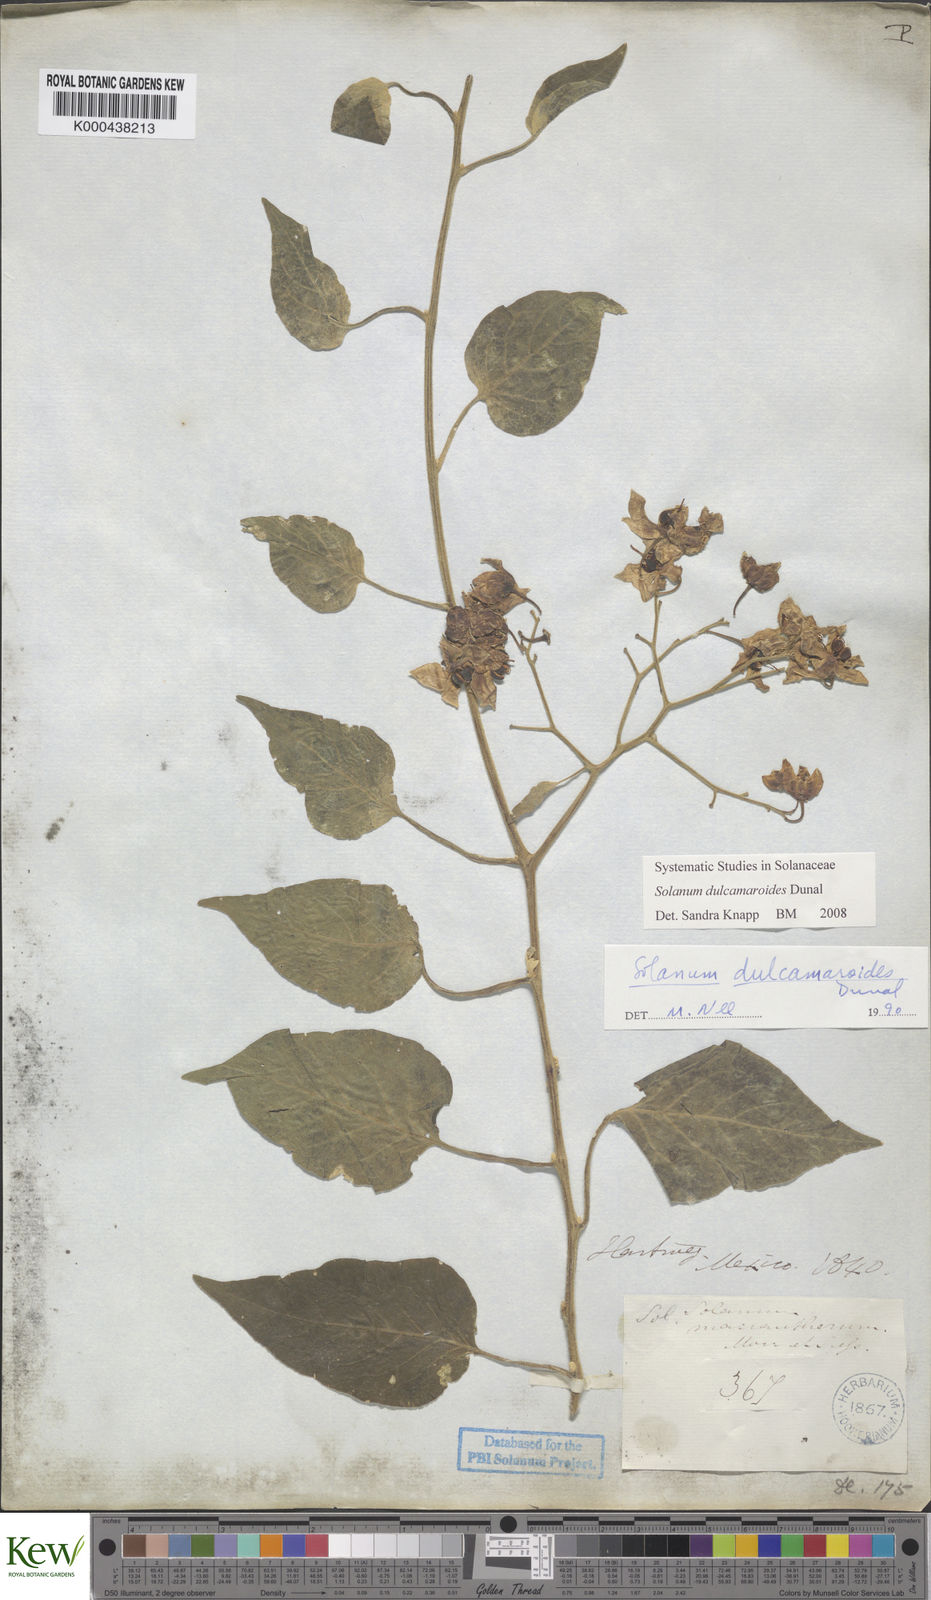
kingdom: Plantae
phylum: Tracheophyta
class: Magnoliopsida
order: Solanales
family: Solanaceae
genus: Solanum
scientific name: Solanum dulcamaroides
